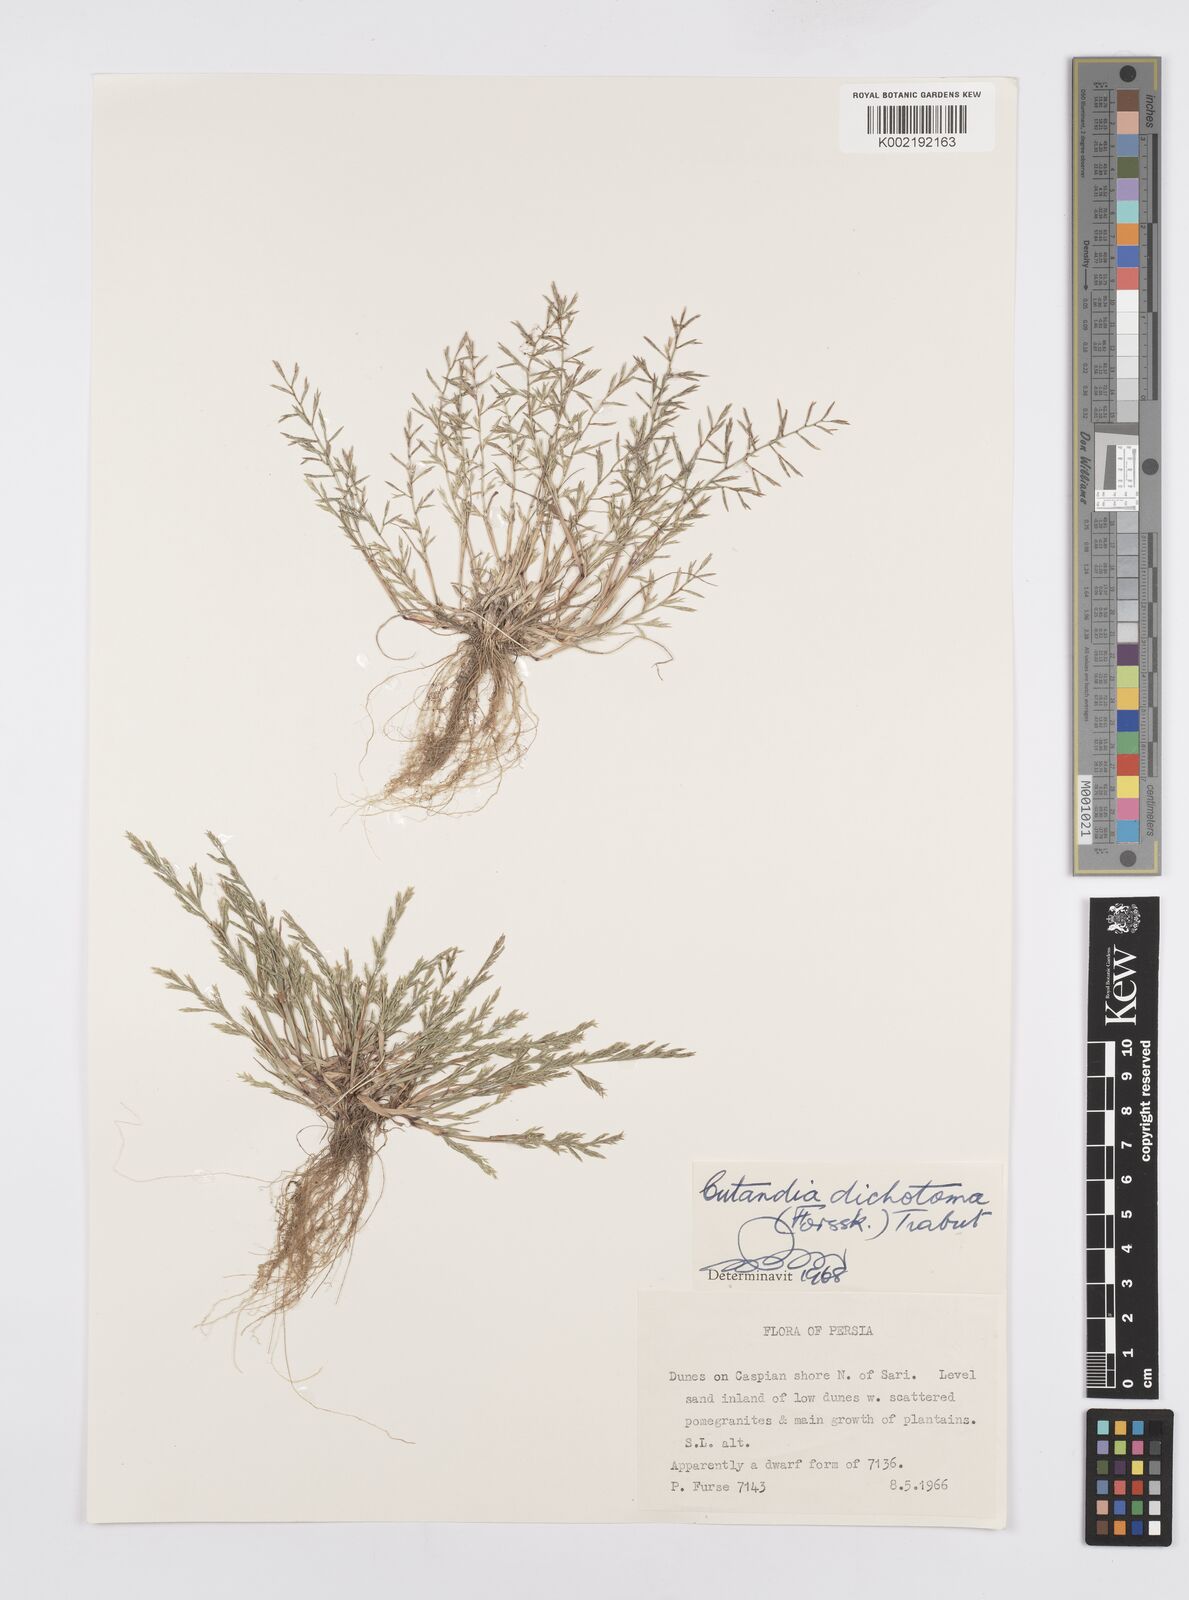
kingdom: Plantae
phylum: Tracheophyta
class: Liliopsida
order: Poales
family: Poaceae
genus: Cutandia
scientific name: Cutandia dichotoma
